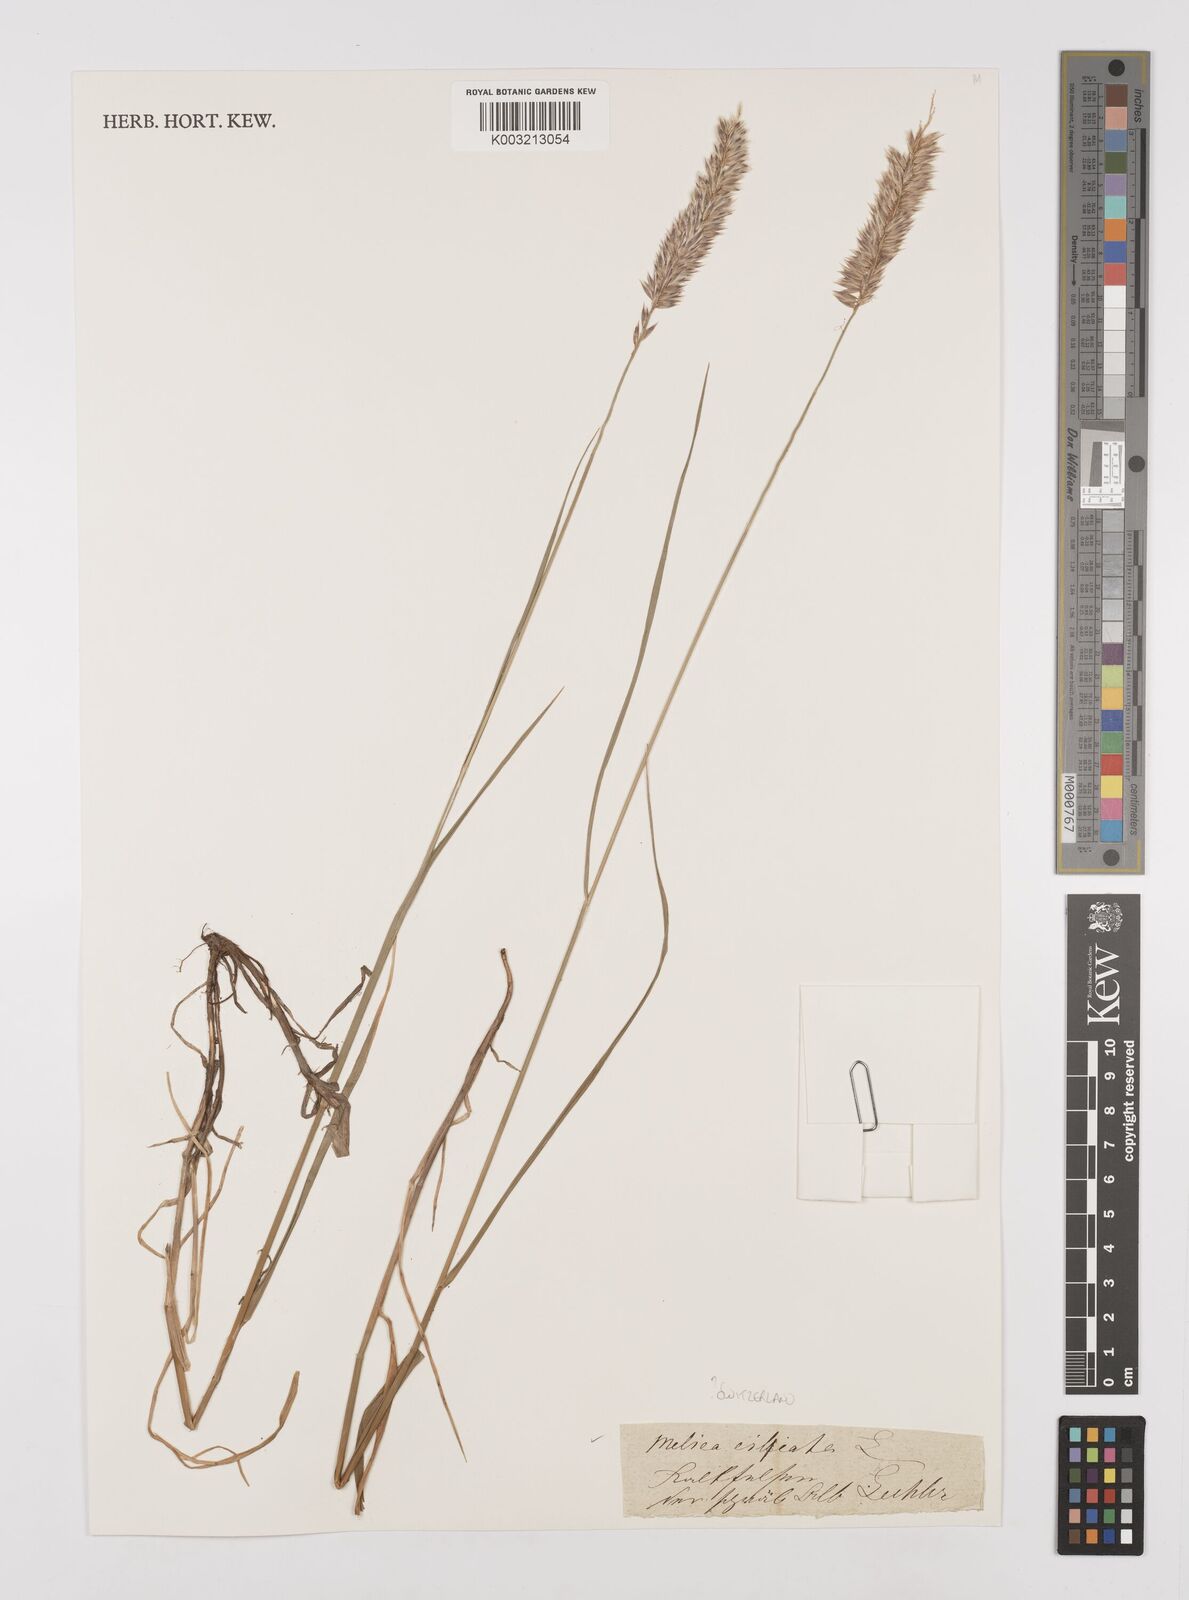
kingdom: Plantae
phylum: Tracheophyta
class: Liliopsida
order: Poales
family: Poaceae
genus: Melica
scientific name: Melica ciliata
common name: Hairy melicgrass
